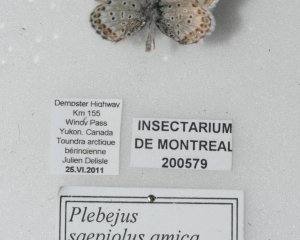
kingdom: Animalia
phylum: Arthropoda
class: Insecta
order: Lepidoptera
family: Lycaenidae
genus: Lycaeides
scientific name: Lycaeides idas
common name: Northern Blue
